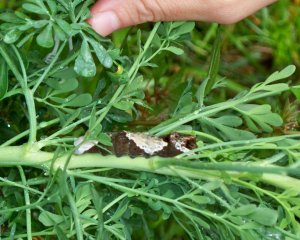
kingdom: Animalia
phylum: Arthropoda
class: Insecta
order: Lepidoptera
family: Papilionidae
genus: Papilio
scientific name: Papilio cresphontes
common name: Eastern Giant Swallowtail
